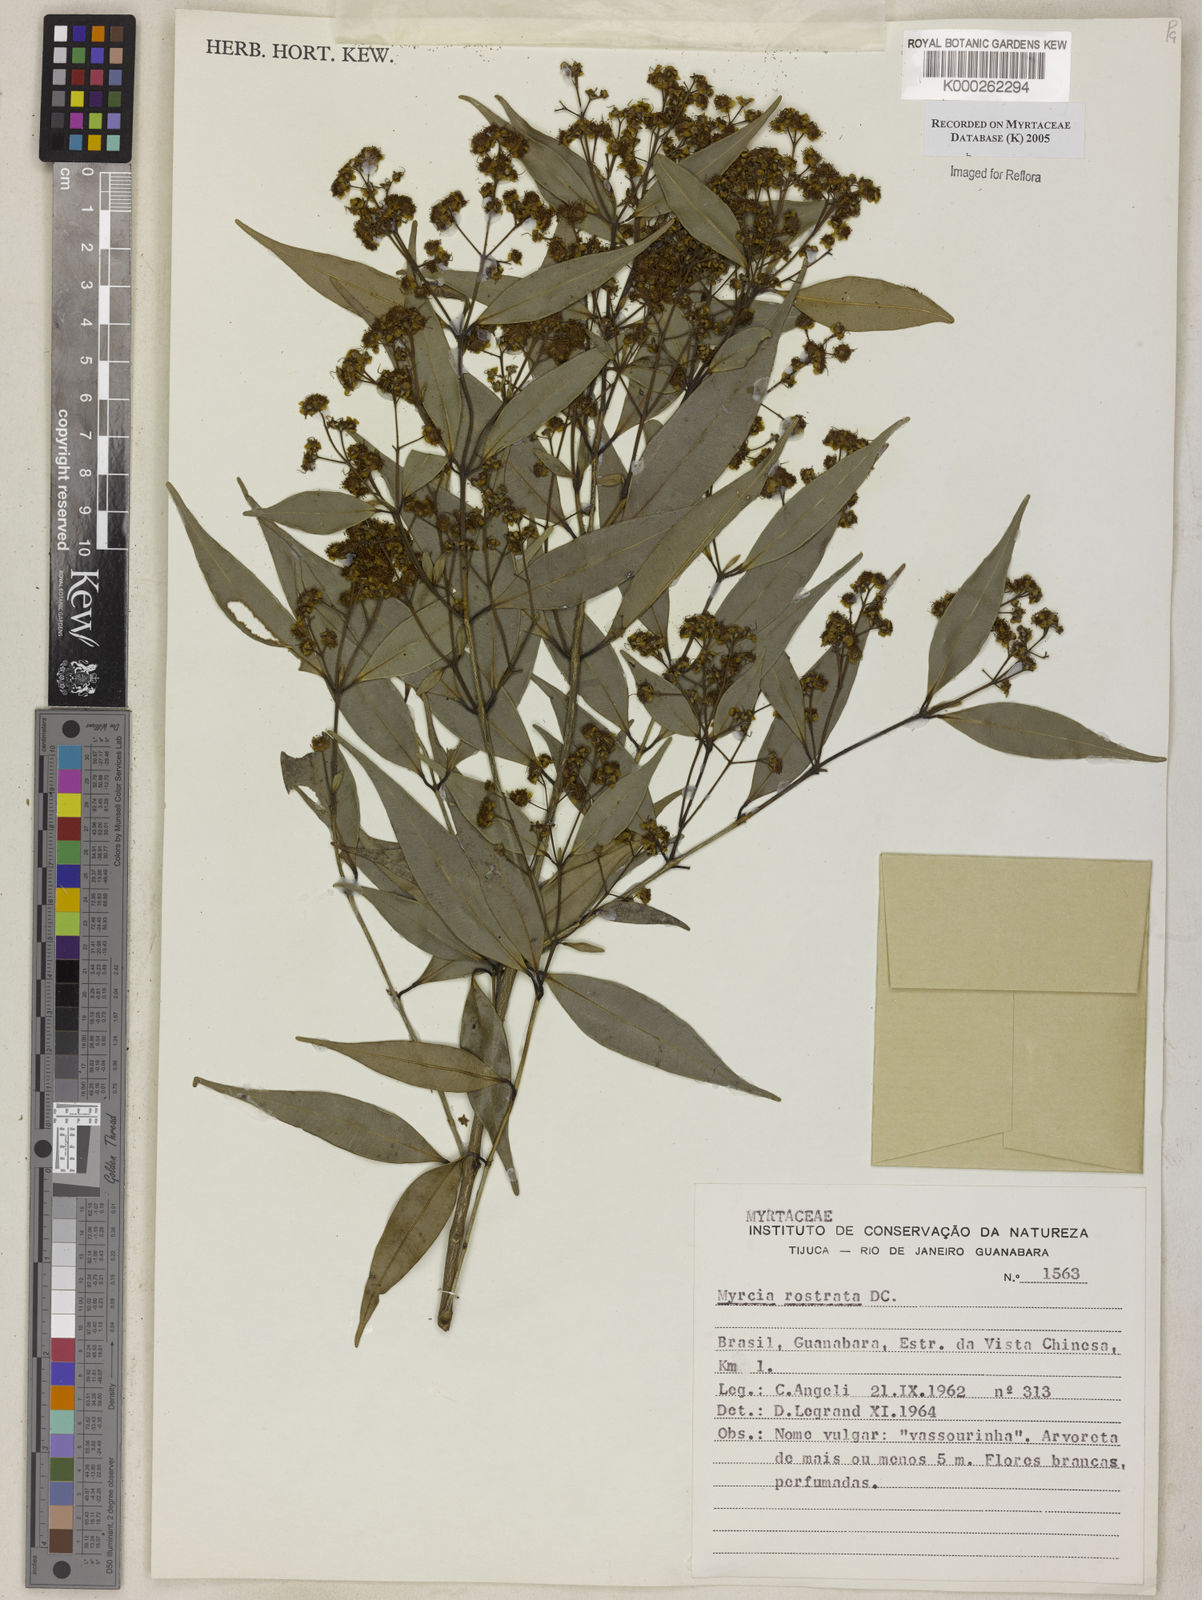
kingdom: Plantae
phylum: Tracheophyta
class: Magnoliopsida
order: Myrtales
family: Myrtaceae
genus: Myrcia
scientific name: Myrcia splendens
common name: Surinam cherry
